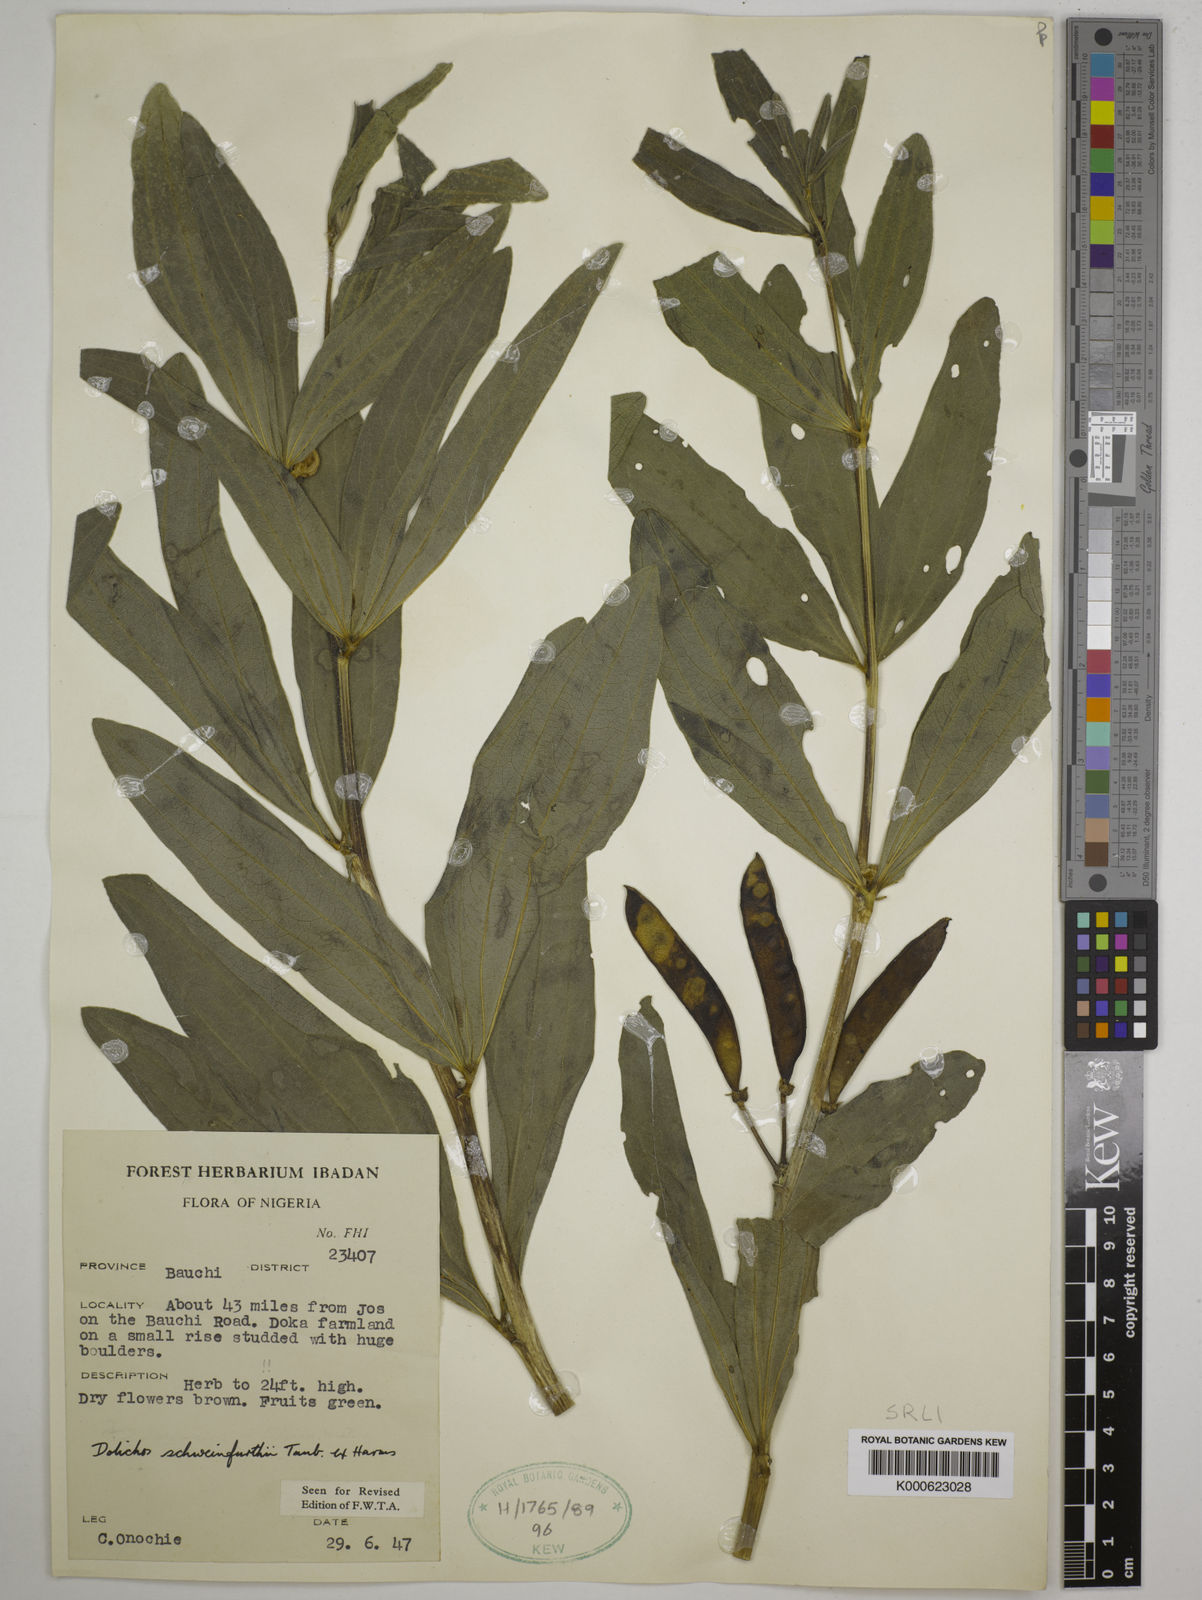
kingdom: Plantae
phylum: Tracheophyta
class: Magnoliopsida
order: Fabales
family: Fabaceae
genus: Dolichos
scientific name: Dolichos
